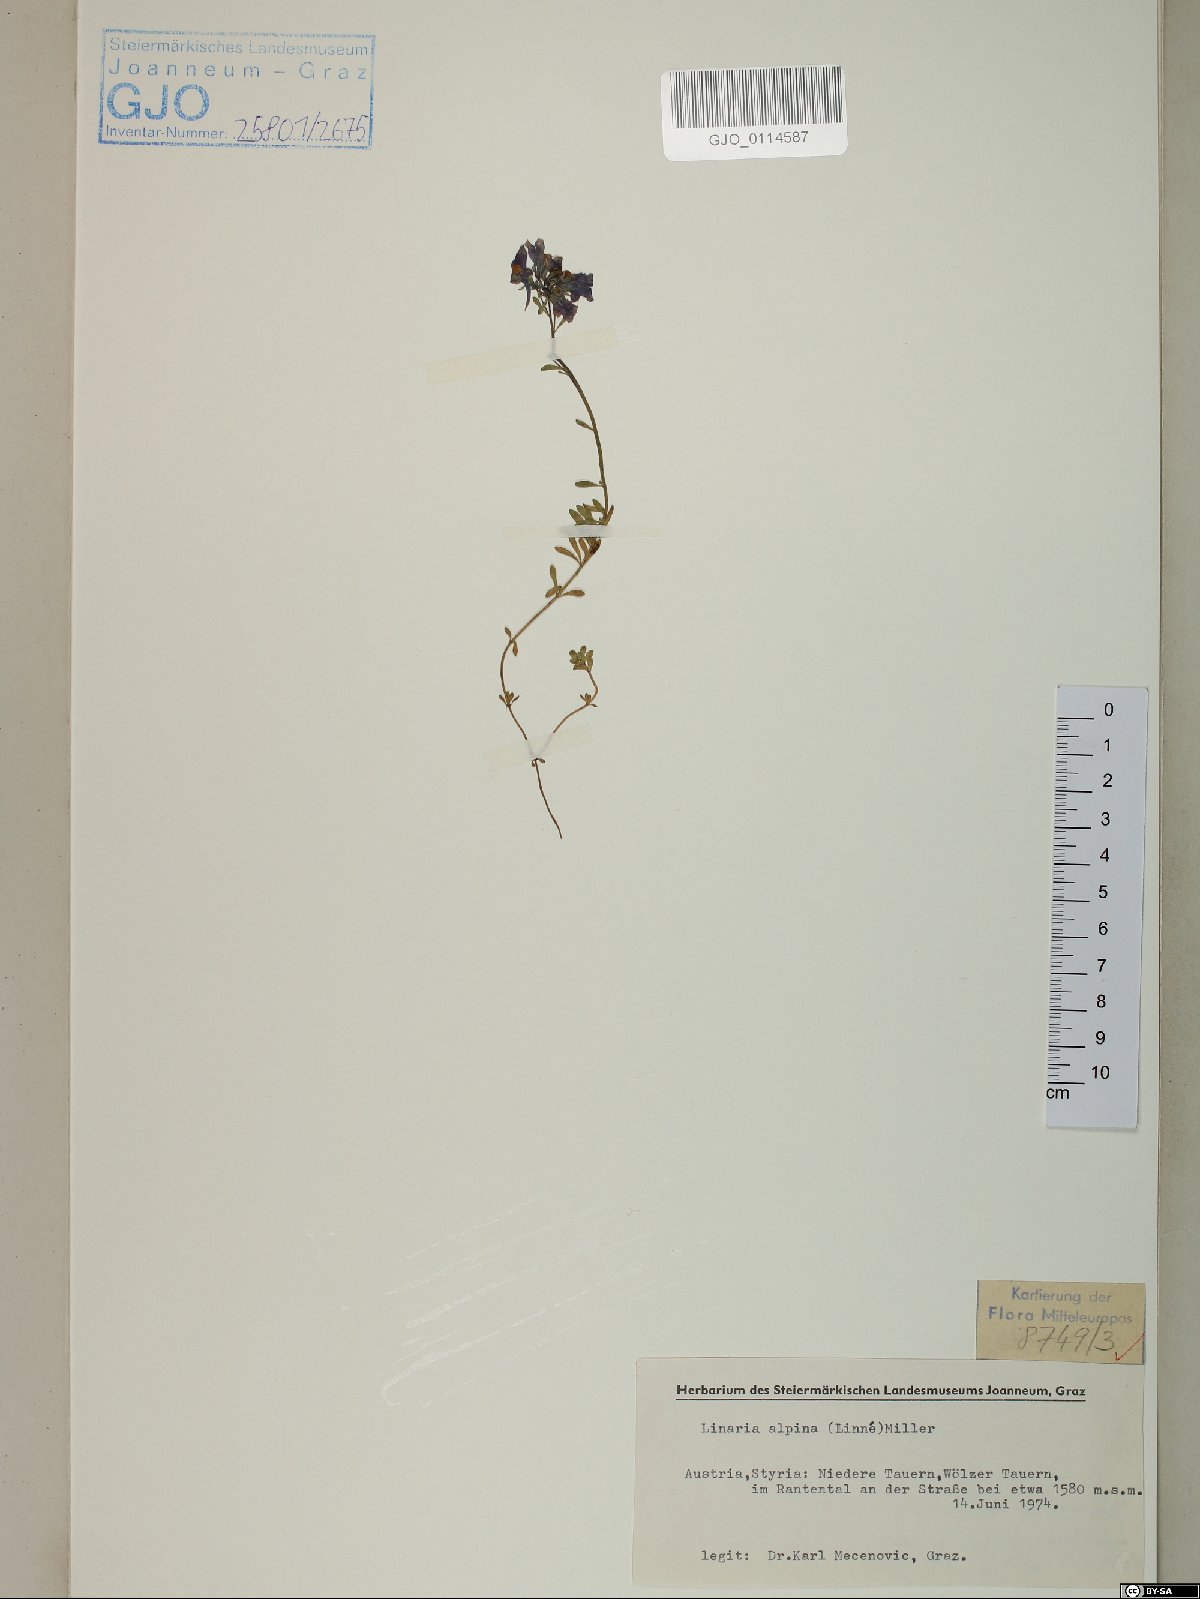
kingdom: Plantae
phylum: Tracheophyta
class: Magnoliopsida
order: Lamiales
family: Plantaginaceae
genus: Linaria
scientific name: Linaria alpina
